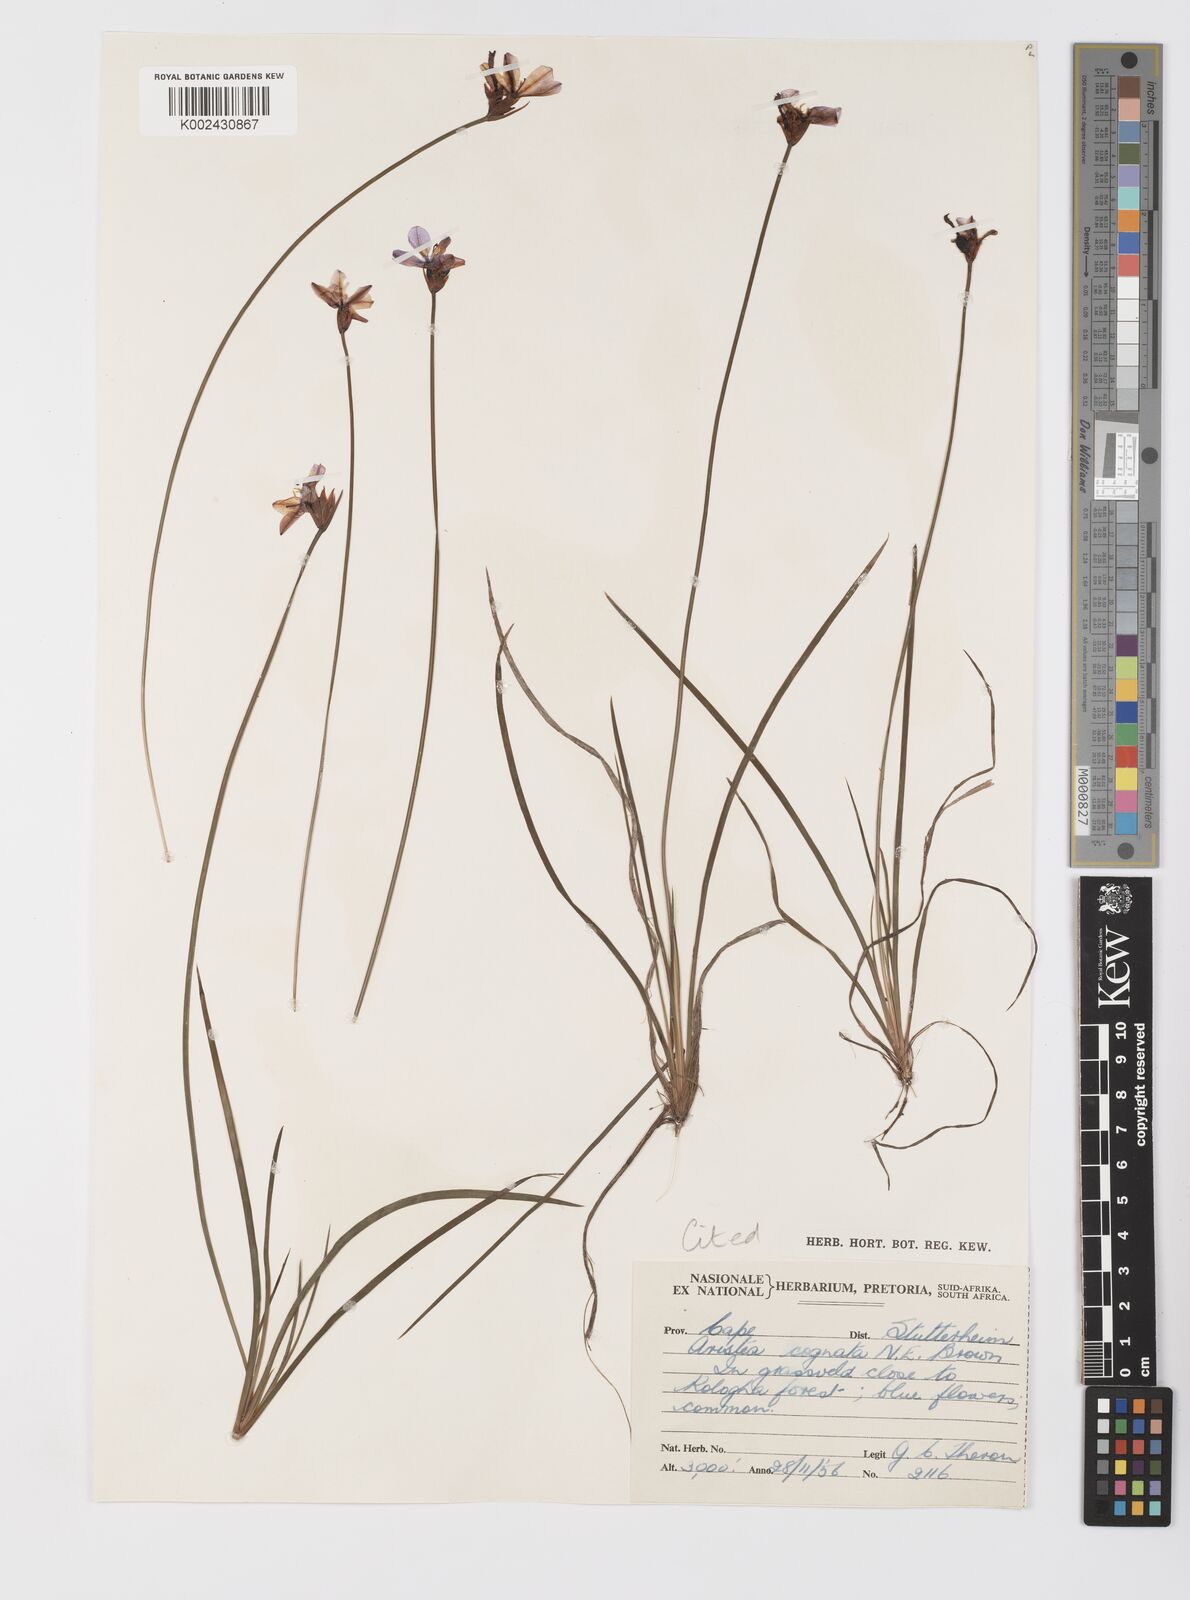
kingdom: Plantae
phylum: Tracheophyta
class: Liliopsida
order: Asparagales
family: Iridaceae
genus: Aristea
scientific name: Aristea abyssinica
